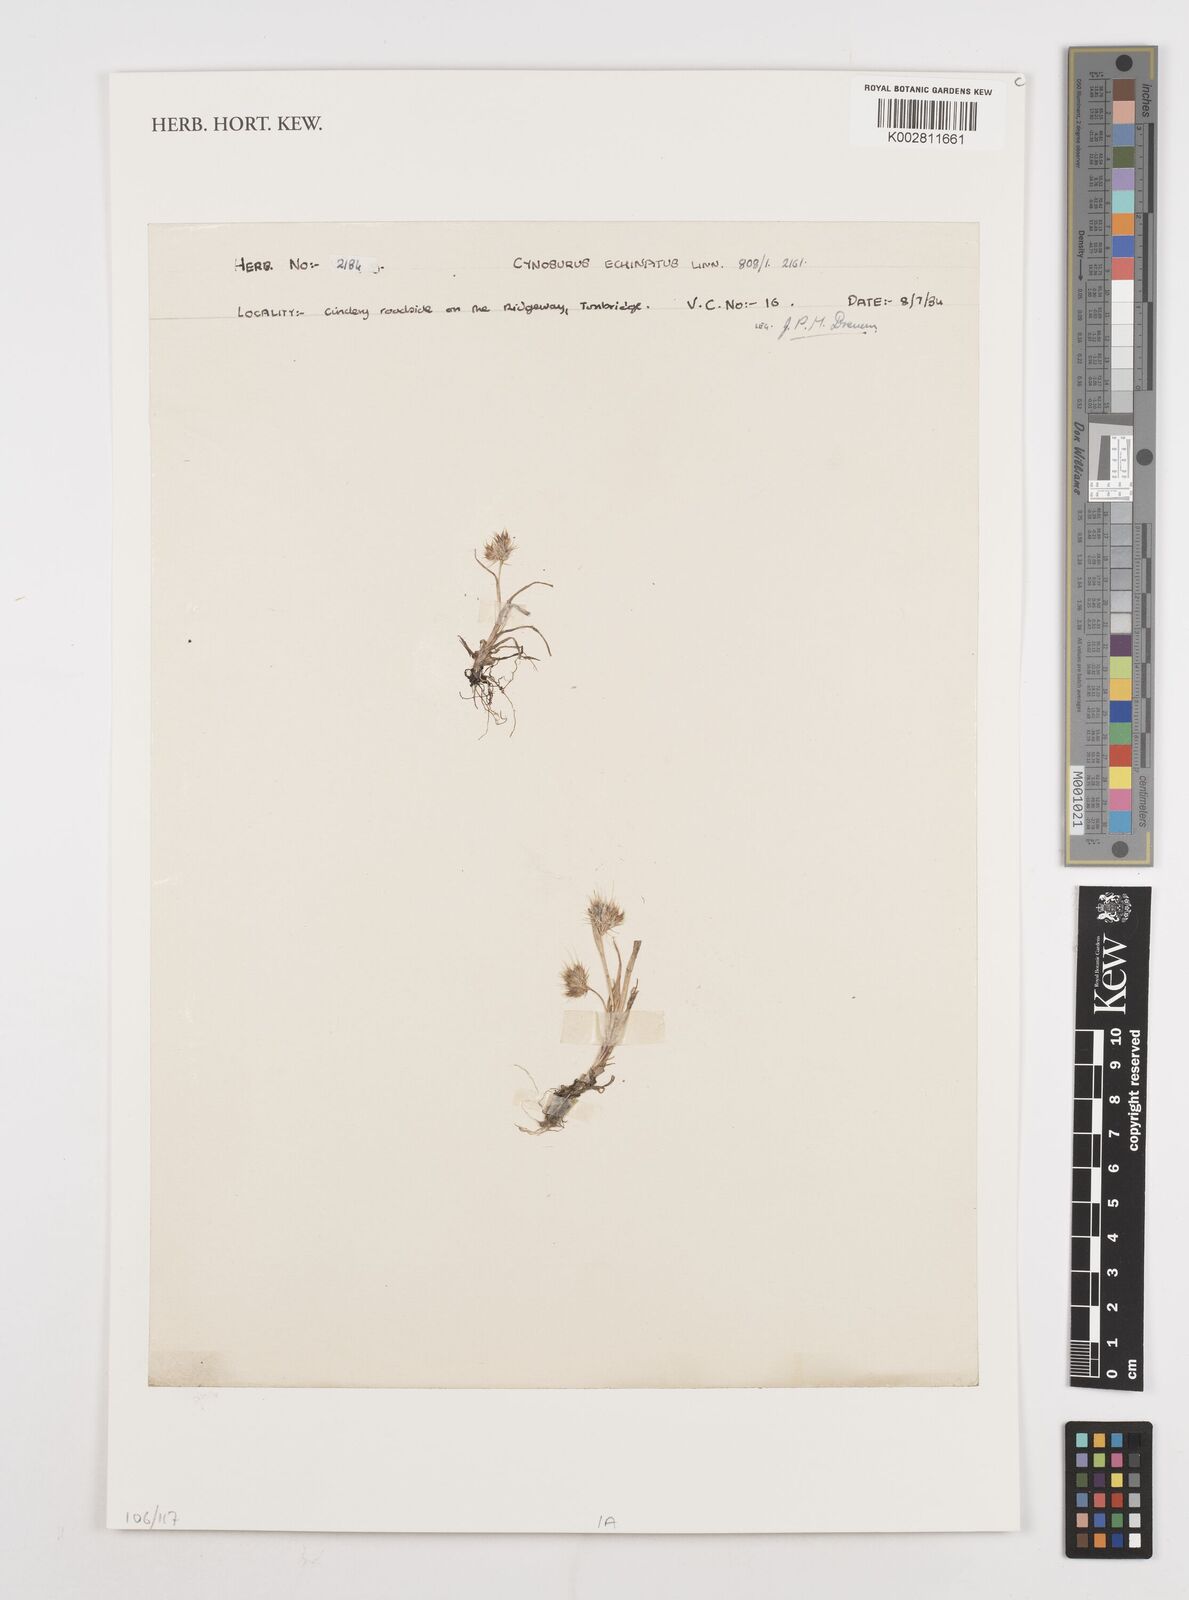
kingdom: Plantae
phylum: Tracheophyta
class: Liliopsida
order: Poales
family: Poaceae
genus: Cynosurus
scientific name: Cynosurus echinatus
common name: Rough dog's-tail
